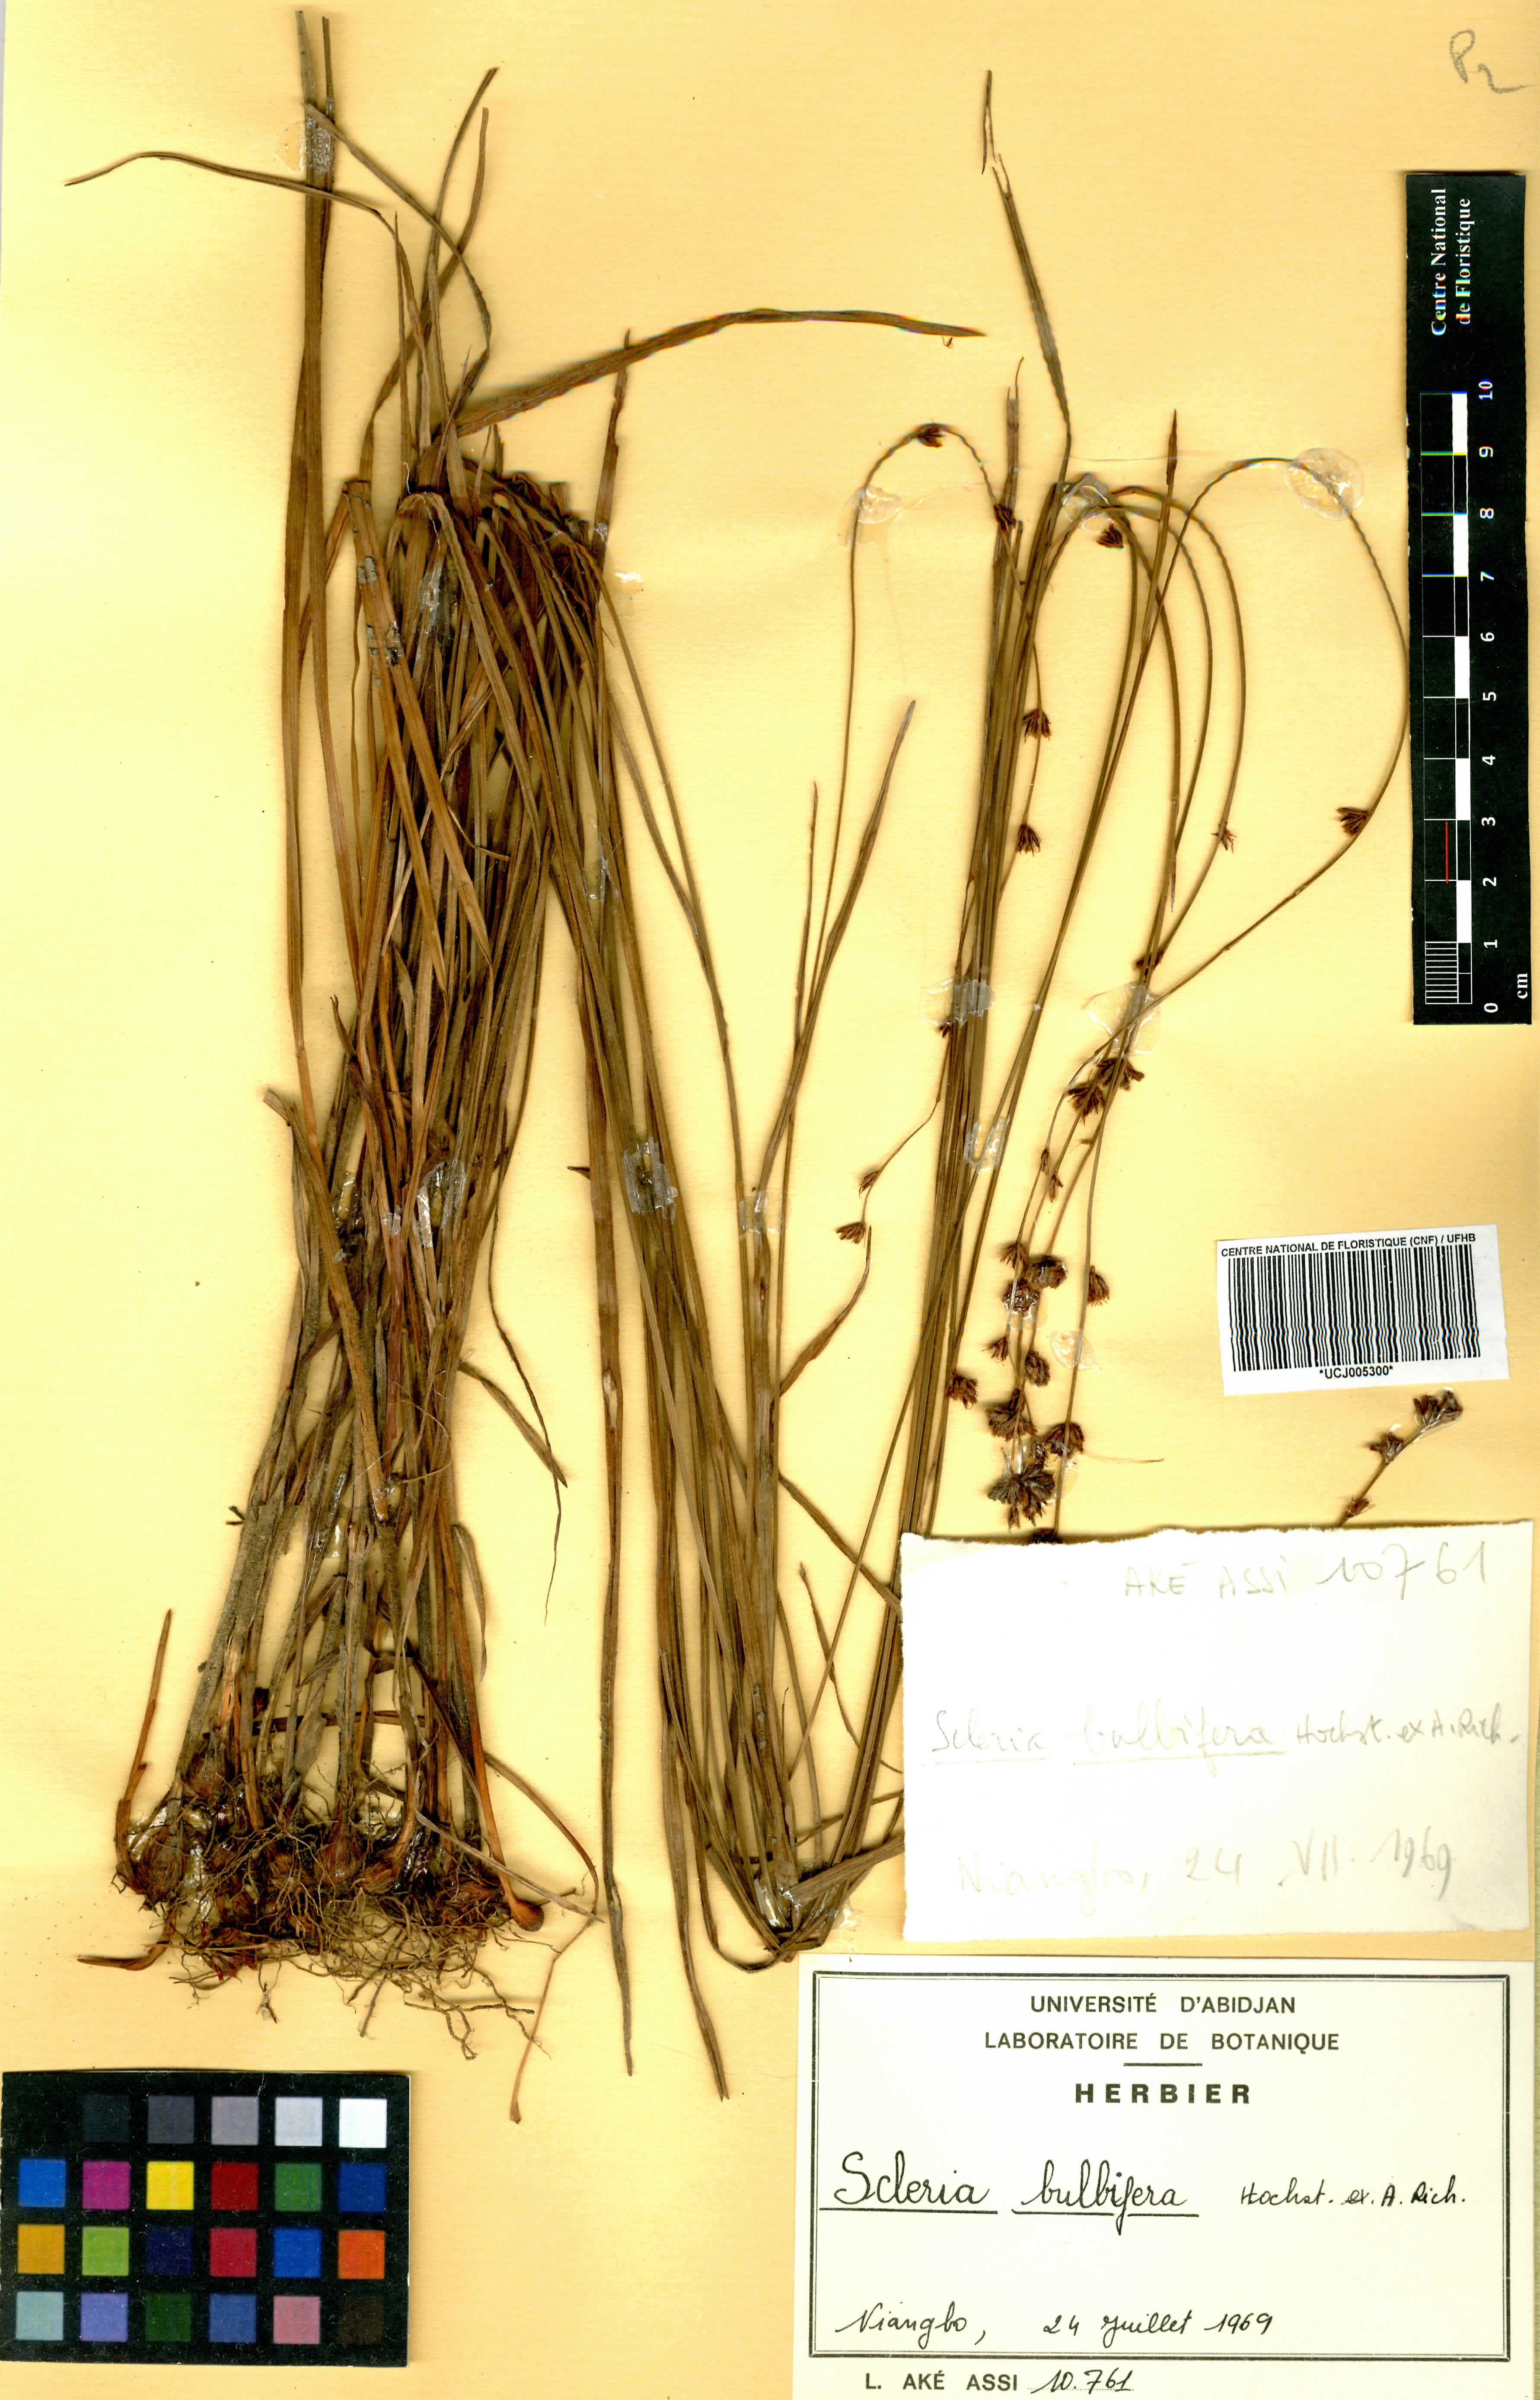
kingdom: Plantae
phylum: Tracheophyta
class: Liliopsida
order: Poales
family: Cyperaceae
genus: Scleria
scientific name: Scleria bulbifera
